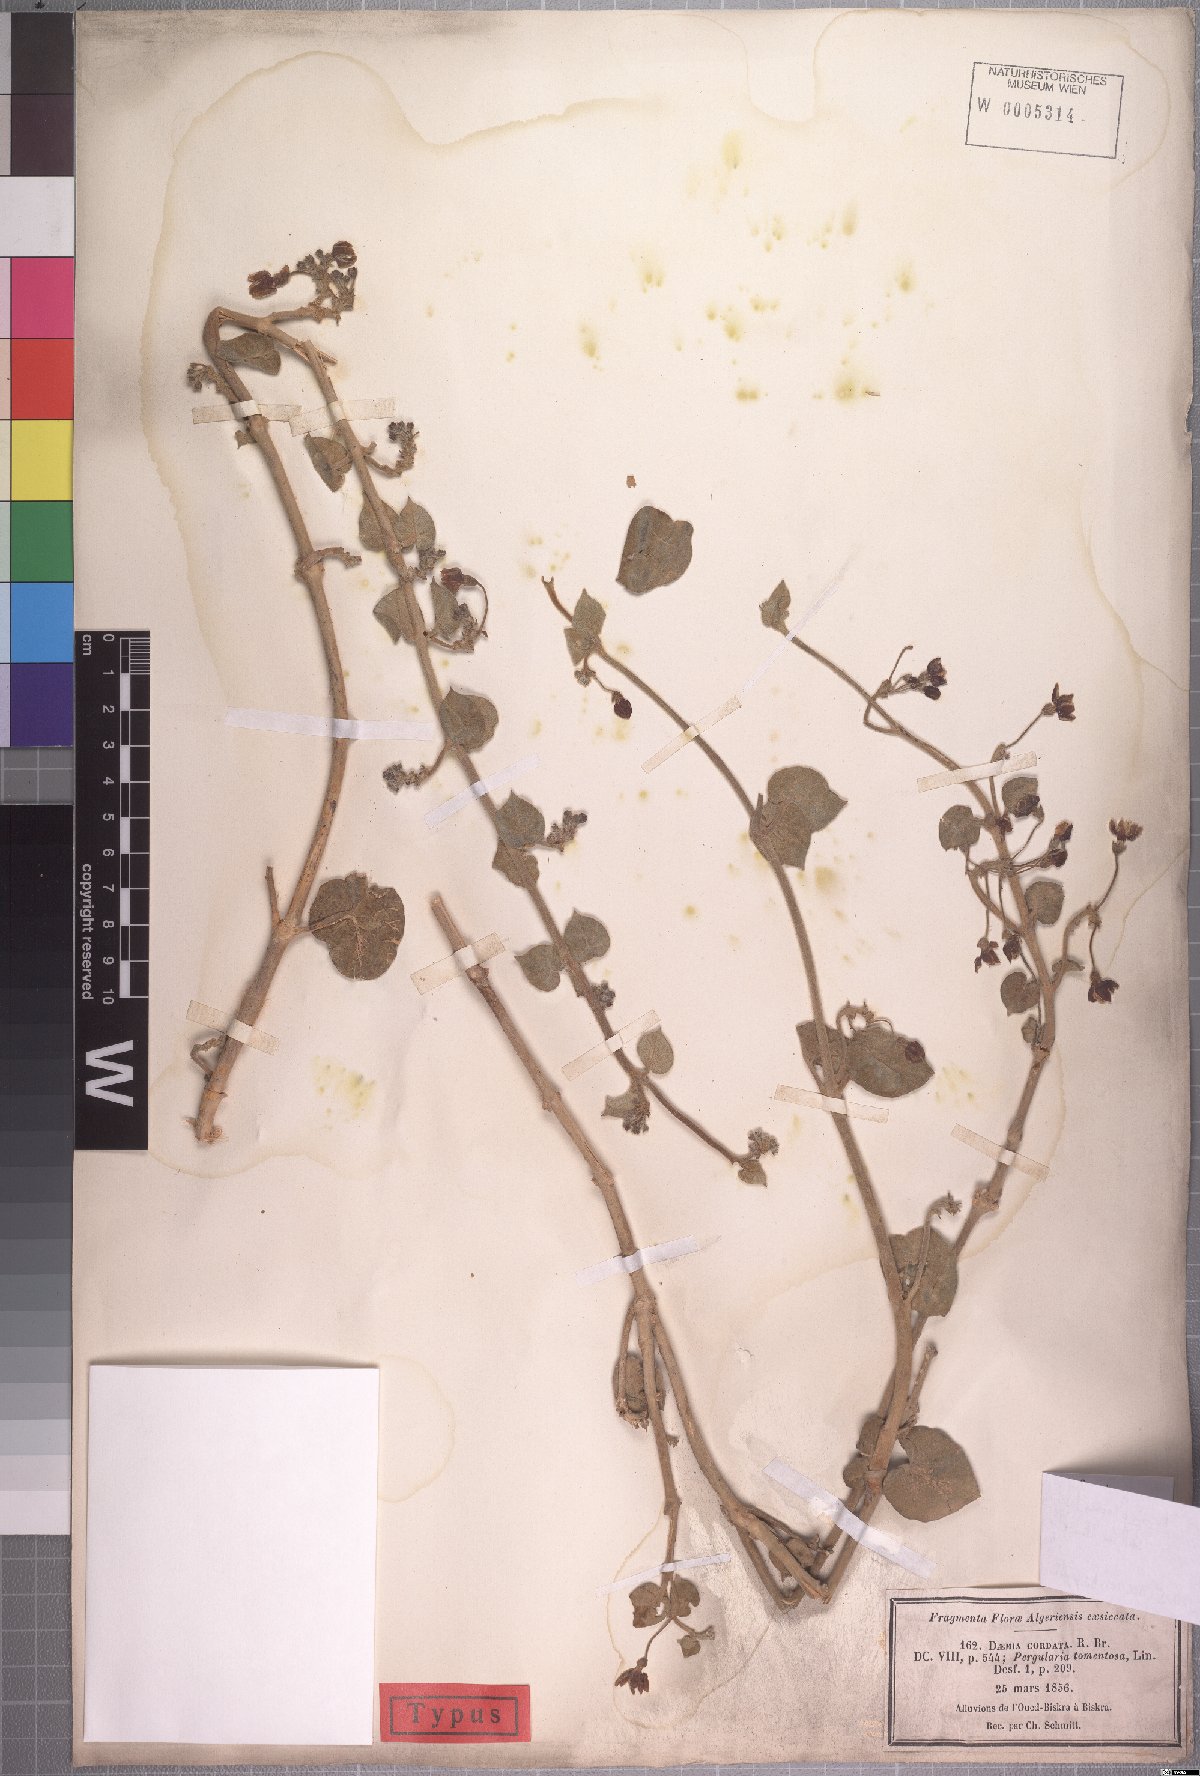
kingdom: Plantae
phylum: Tracheophyta
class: Magnoliopsida
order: Gentianales
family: Apocynaceae
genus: Pergularia
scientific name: Pergularia tomentosa
